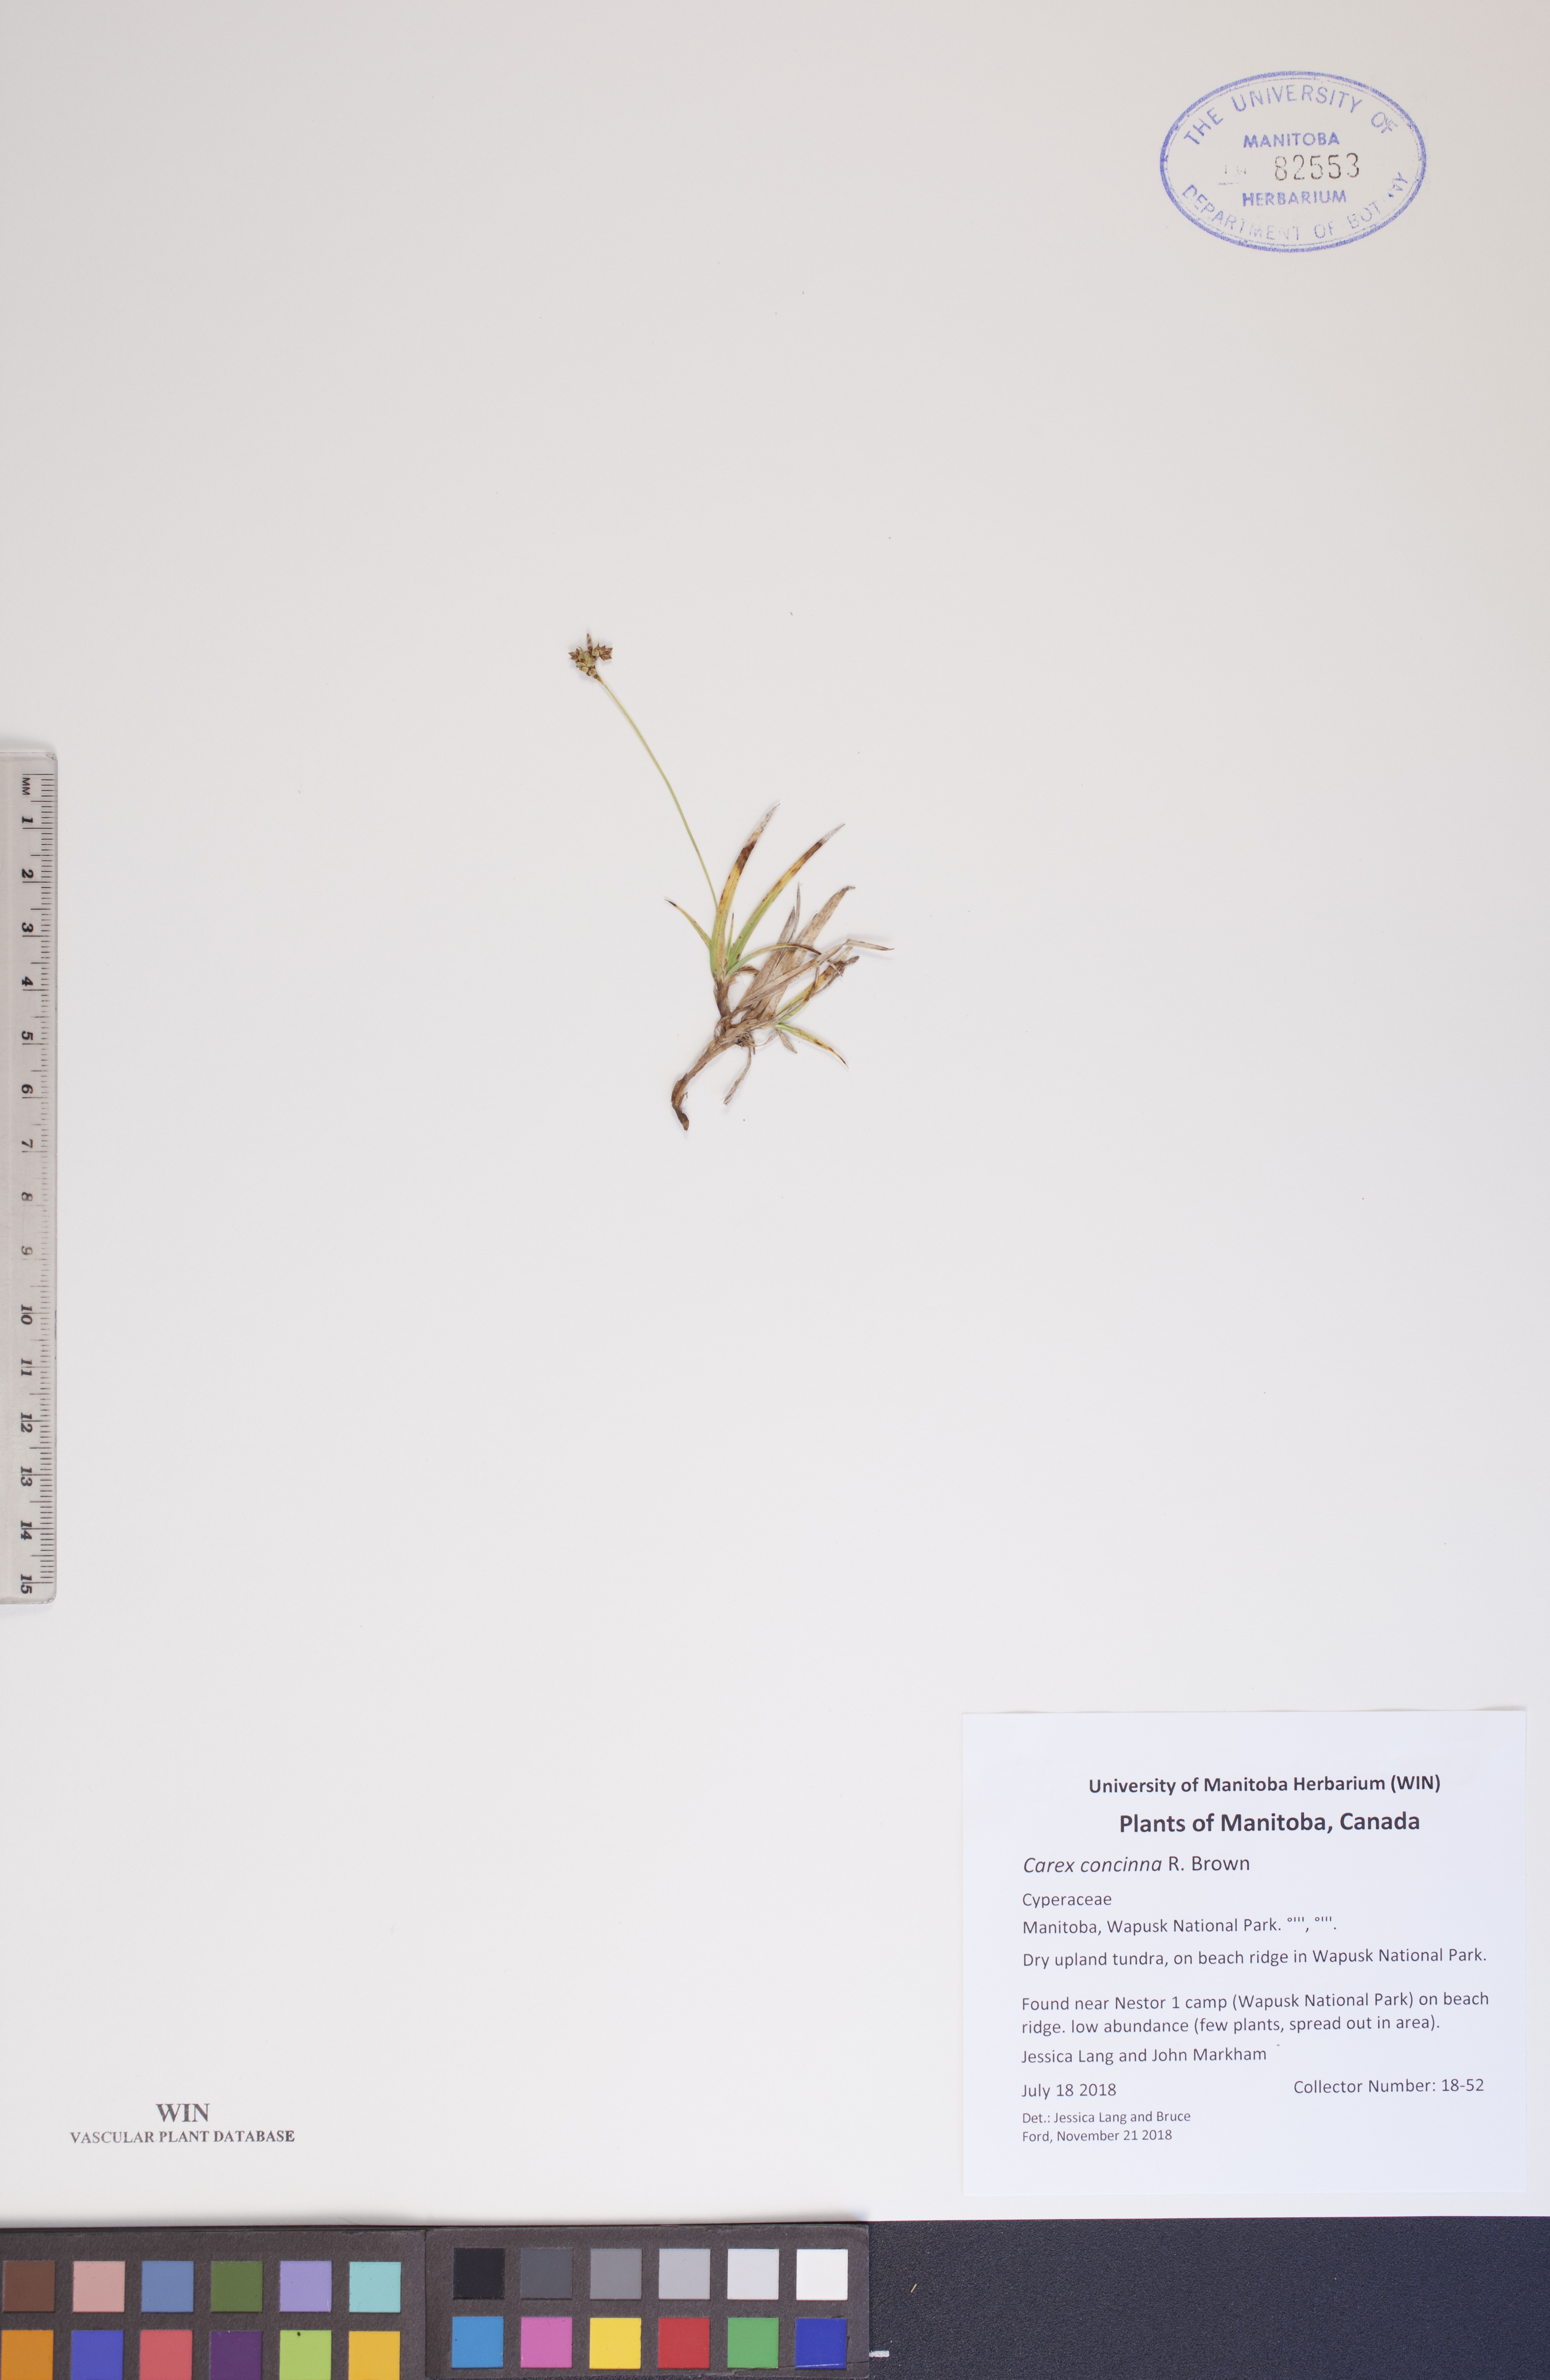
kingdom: Plantae
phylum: Tracheophyta
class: Liliopsida
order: Poales
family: Cyperaceae
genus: Carex
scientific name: Carex concinna
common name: Beautiful sedge
